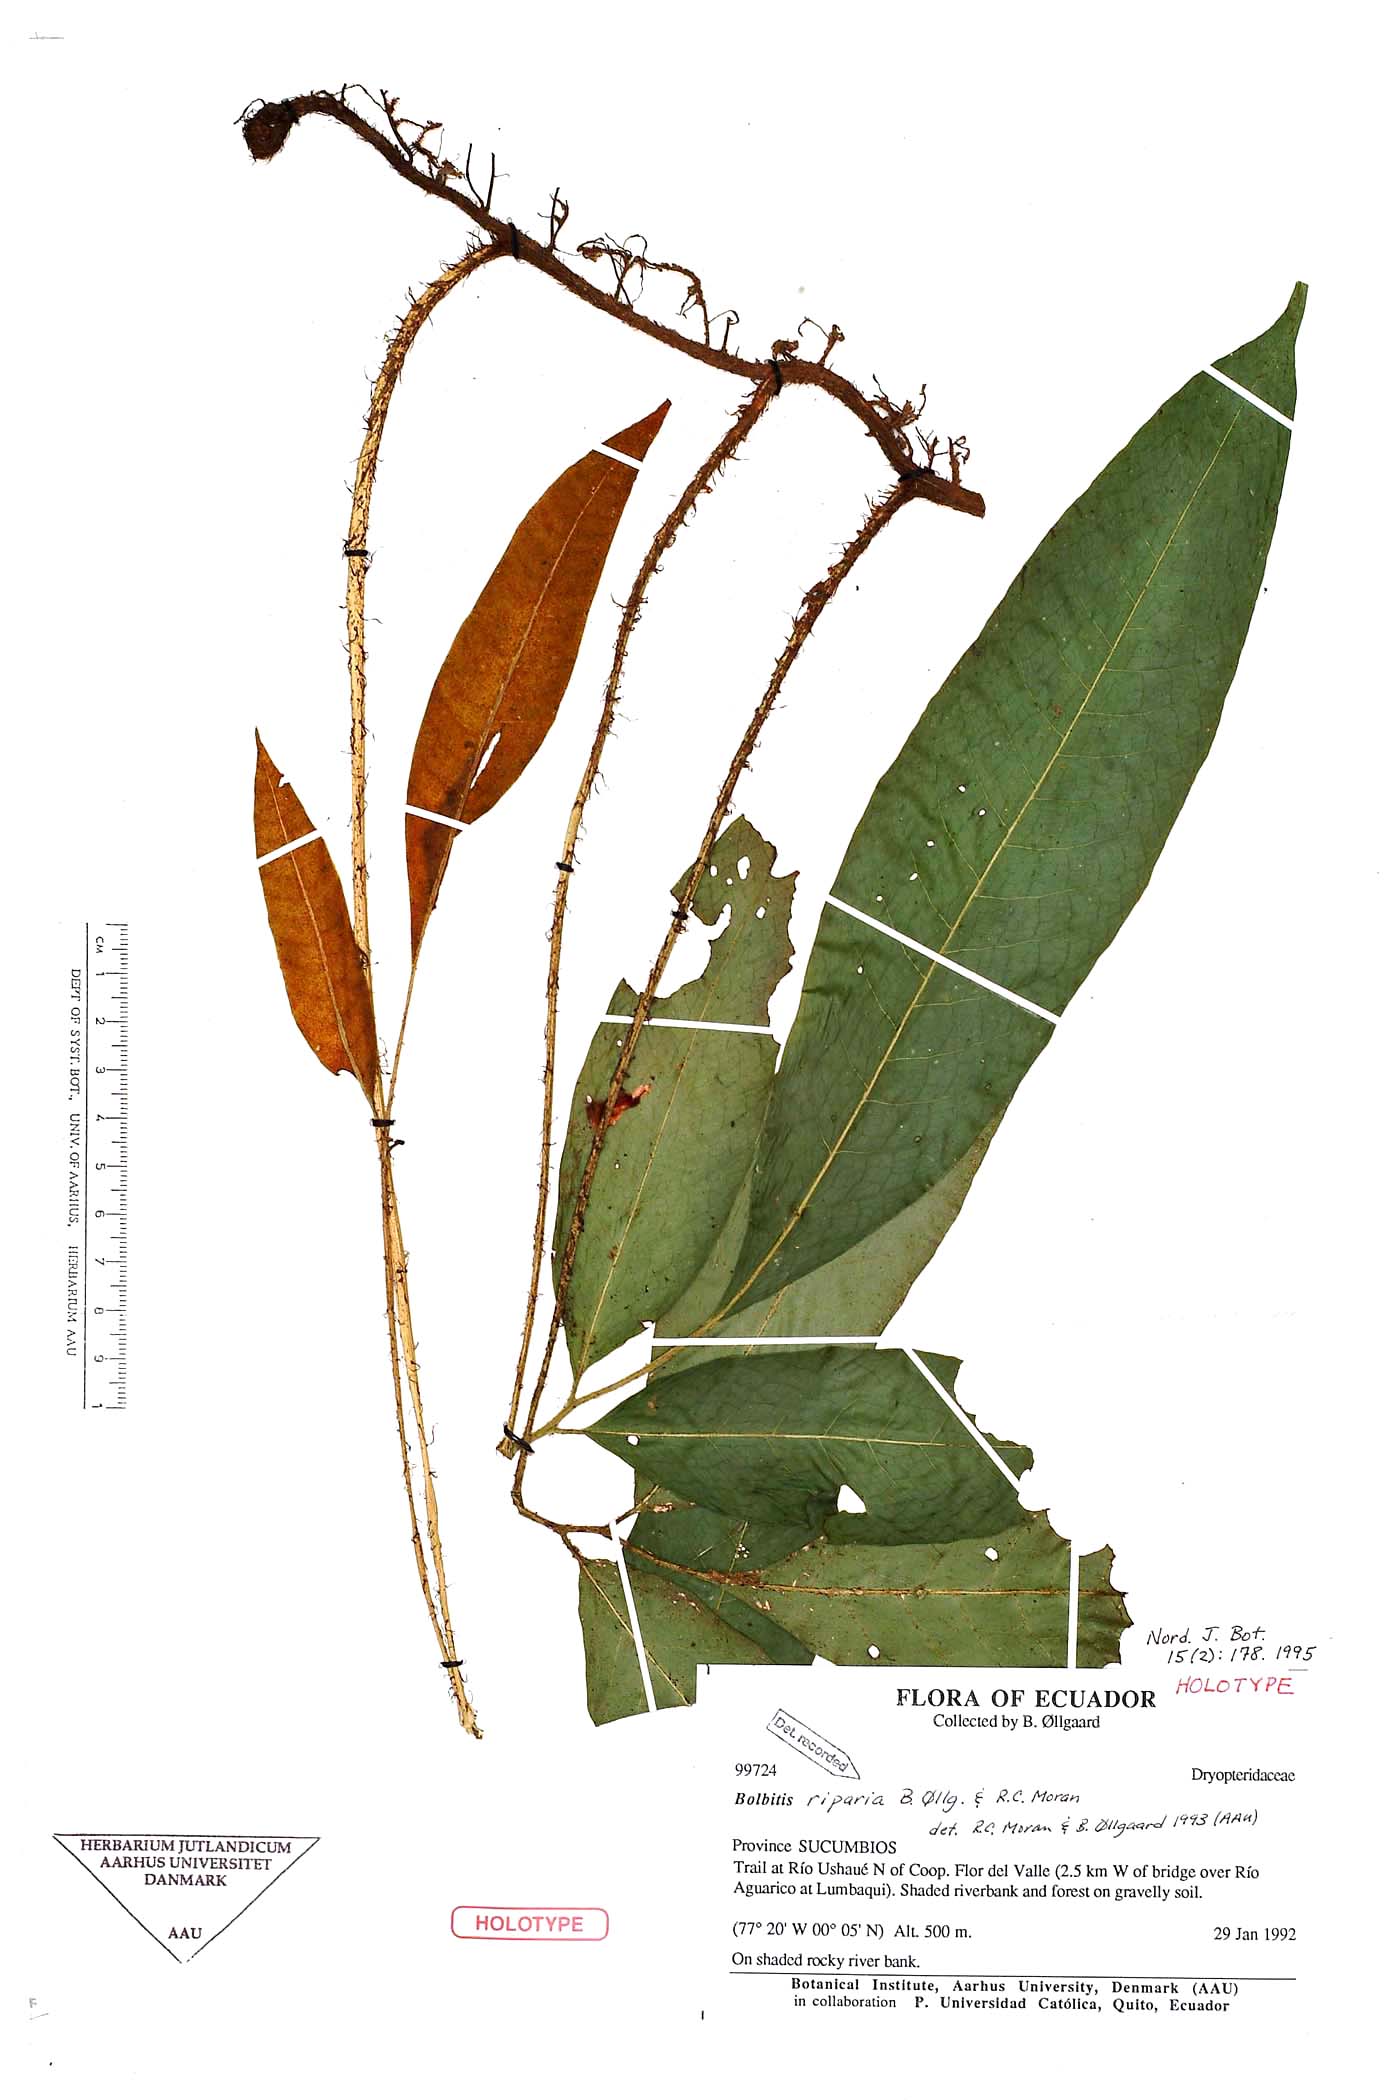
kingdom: Plantae
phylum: Tracheophyta
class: Polypodiopsida
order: Polypodiales
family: Dryopteridaceae
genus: Mickelia
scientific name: Mickelia nicotianifolia
